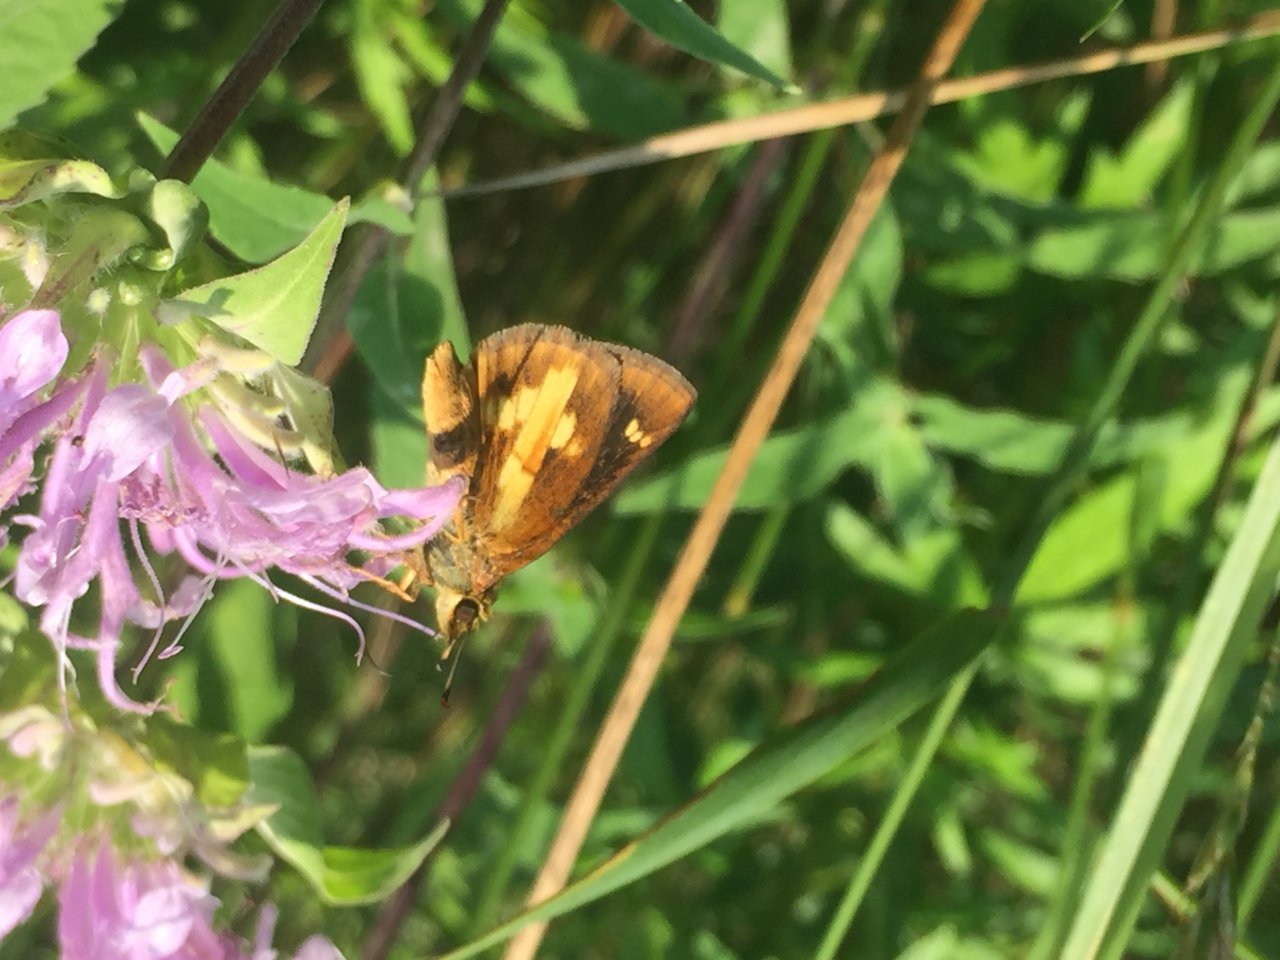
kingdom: Animalia
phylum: Arthropoda
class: Insecta
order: Lepidoptera
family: Hesperiidae
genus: Poanes
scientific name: Poanes massasoit
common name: Mulberry Wing
